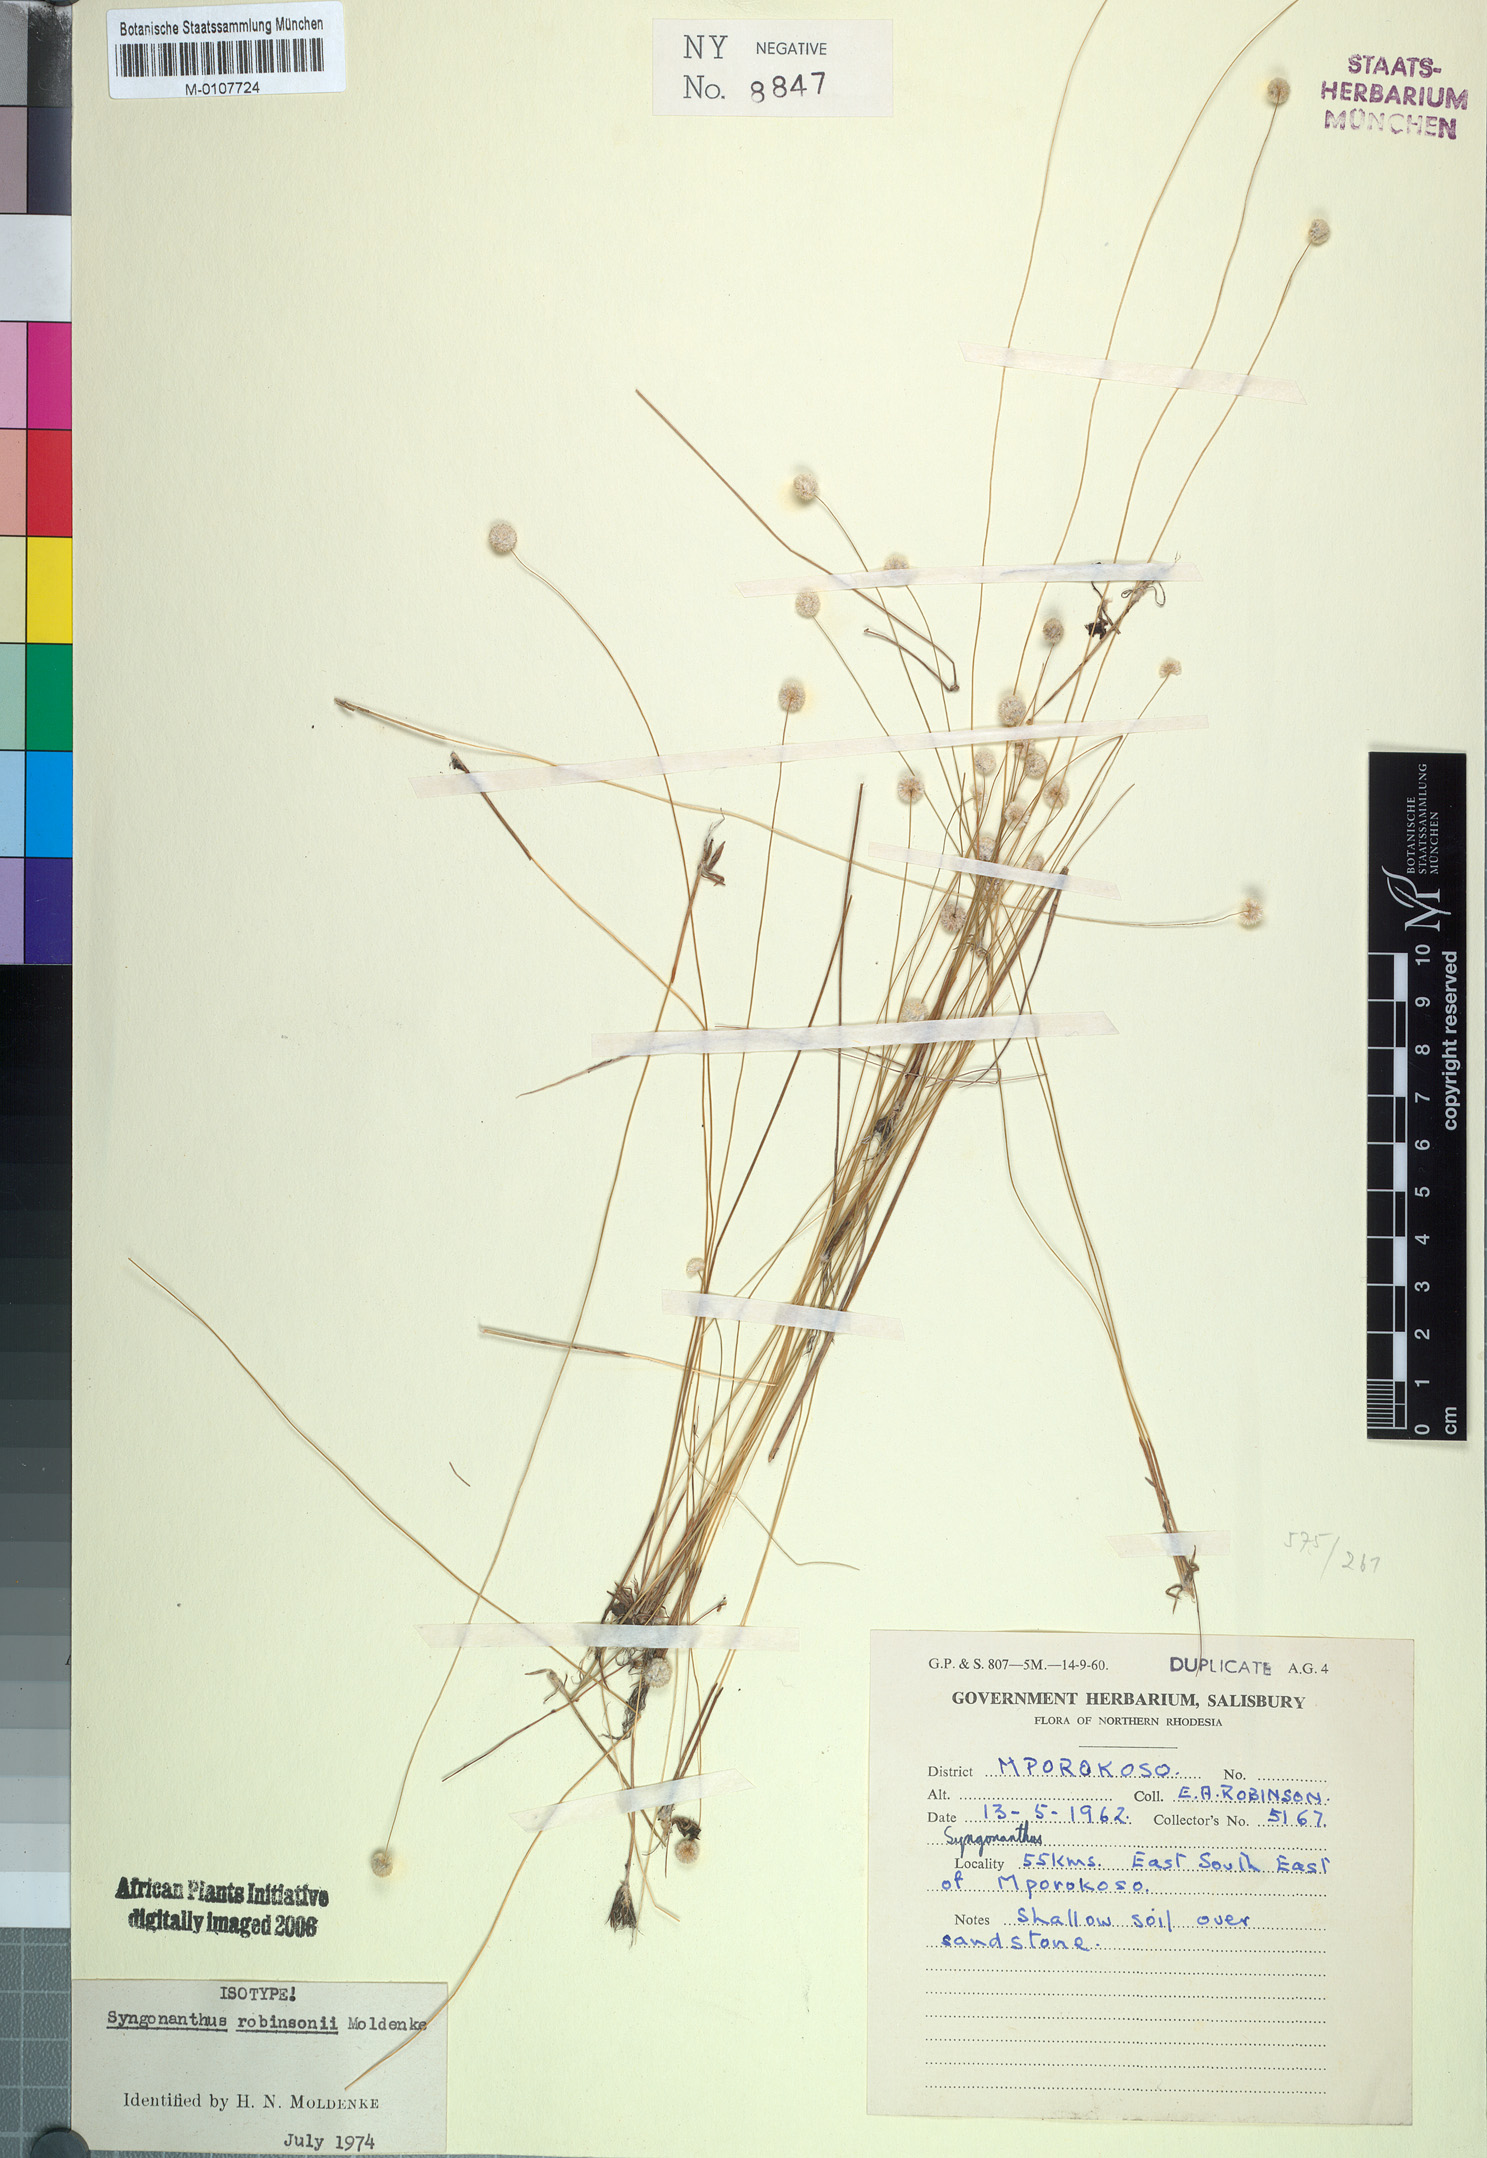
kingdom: Plantae
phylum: Tracheophyta
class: Liliopsida
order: Poales
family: Eriocaulaceae
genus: Syngonanthus
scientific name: Syngonanthus robinsonii
